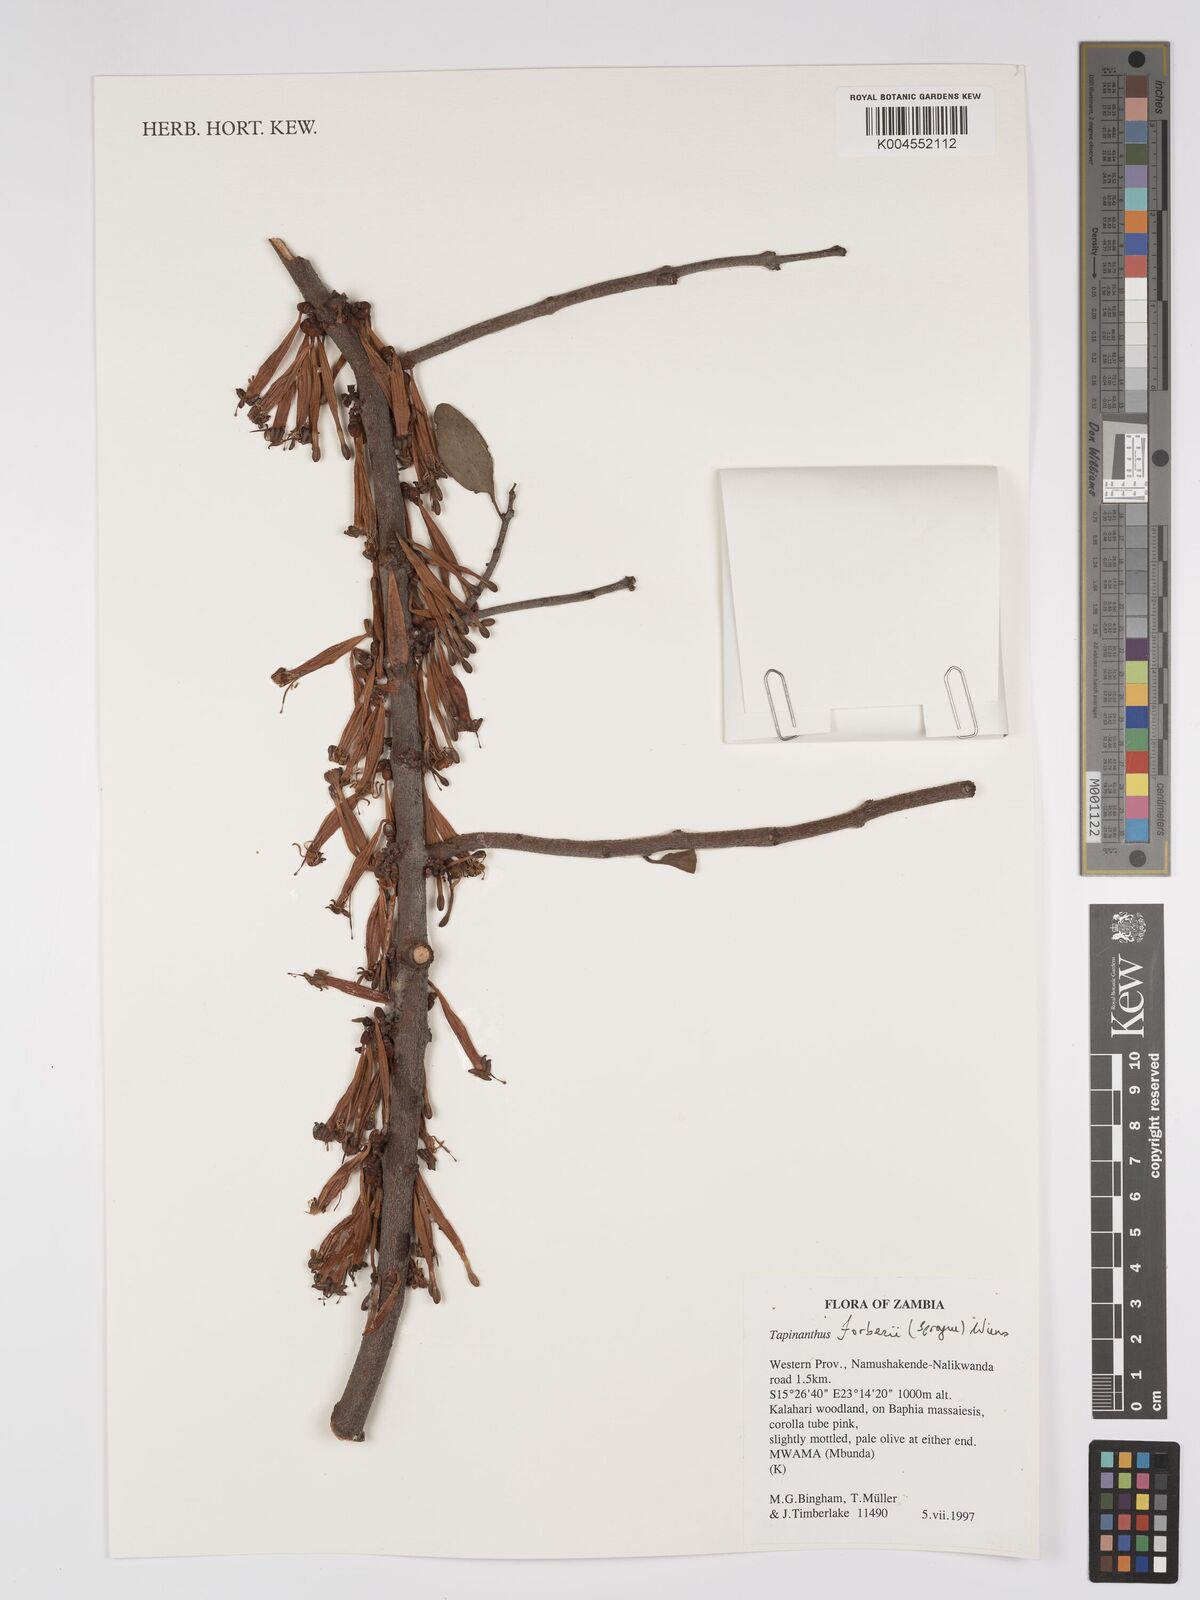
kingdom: Plantae
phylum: Tracheophyta
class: Magnoliopsida
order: Santalales
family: Loranthaceae
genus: Tapinanthus
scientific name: Tapinanthus forbesii
